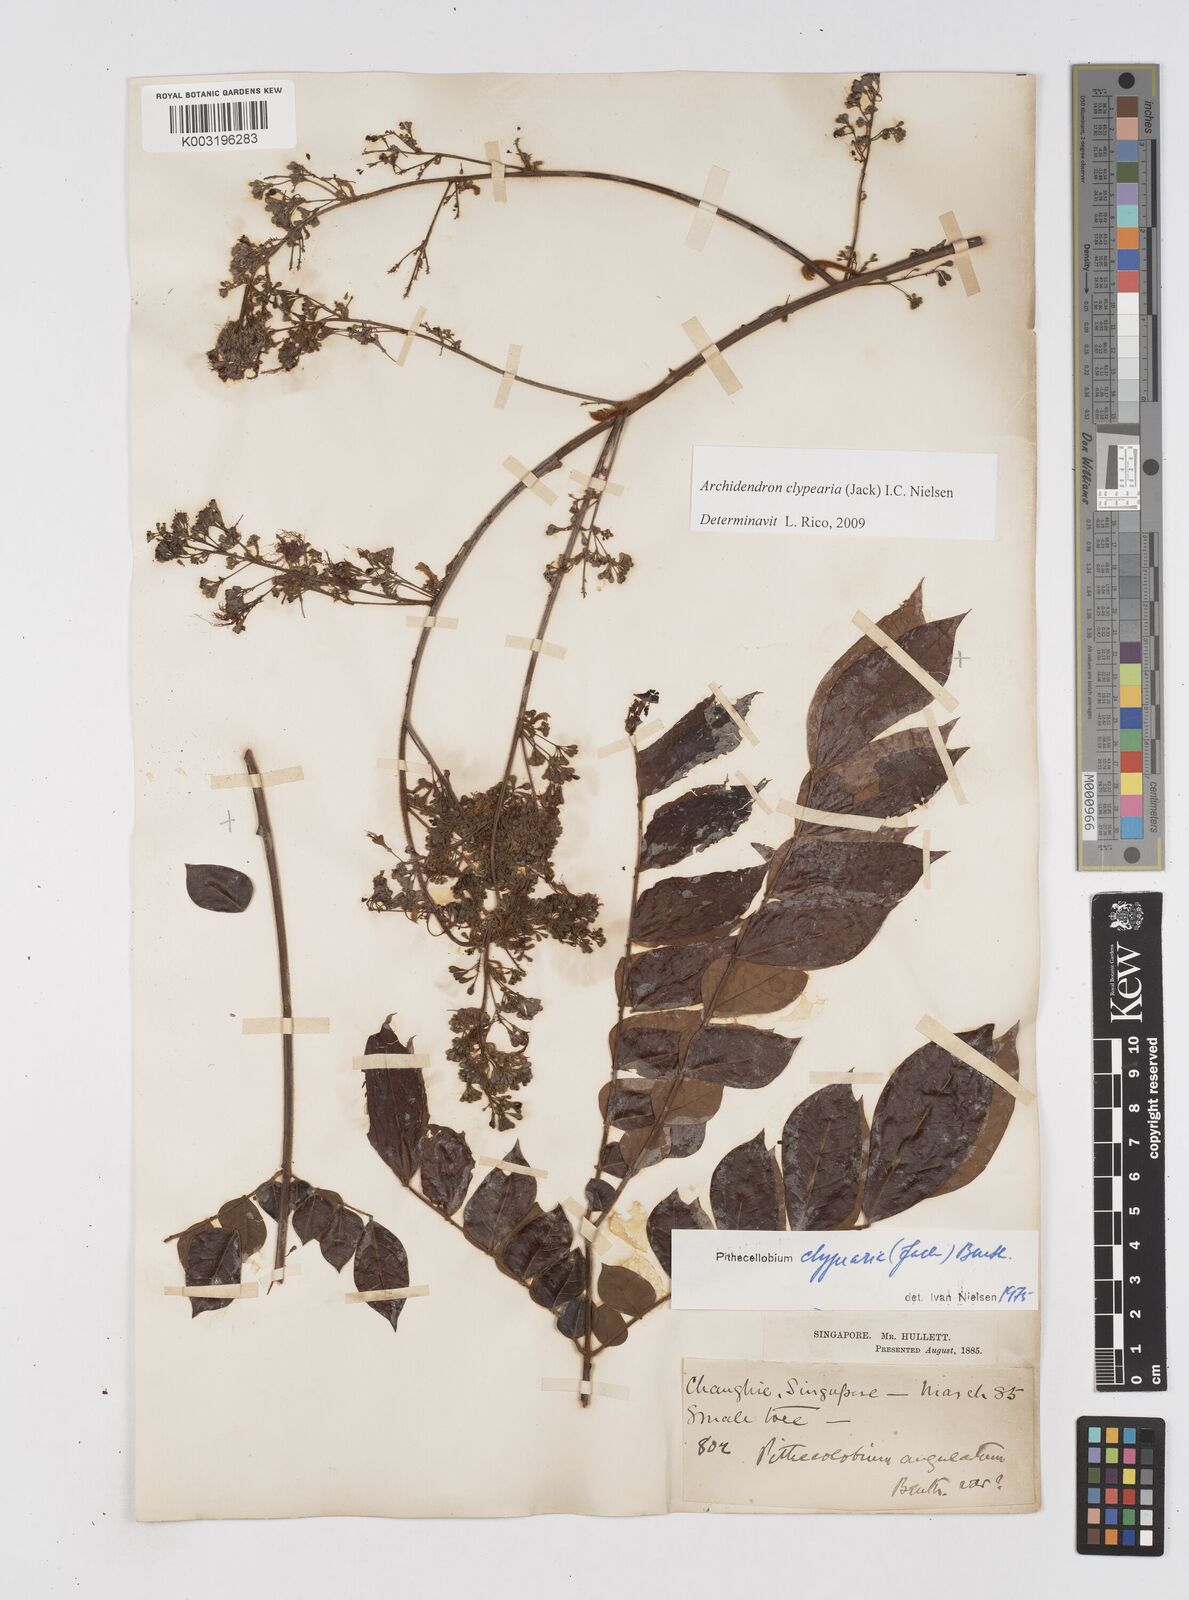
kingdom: Plantae
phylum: Tracheophyta
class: Magnoliopsida
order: Fabales
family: Fabaceae
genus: Archidendron
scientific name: Archidendron clypearia
